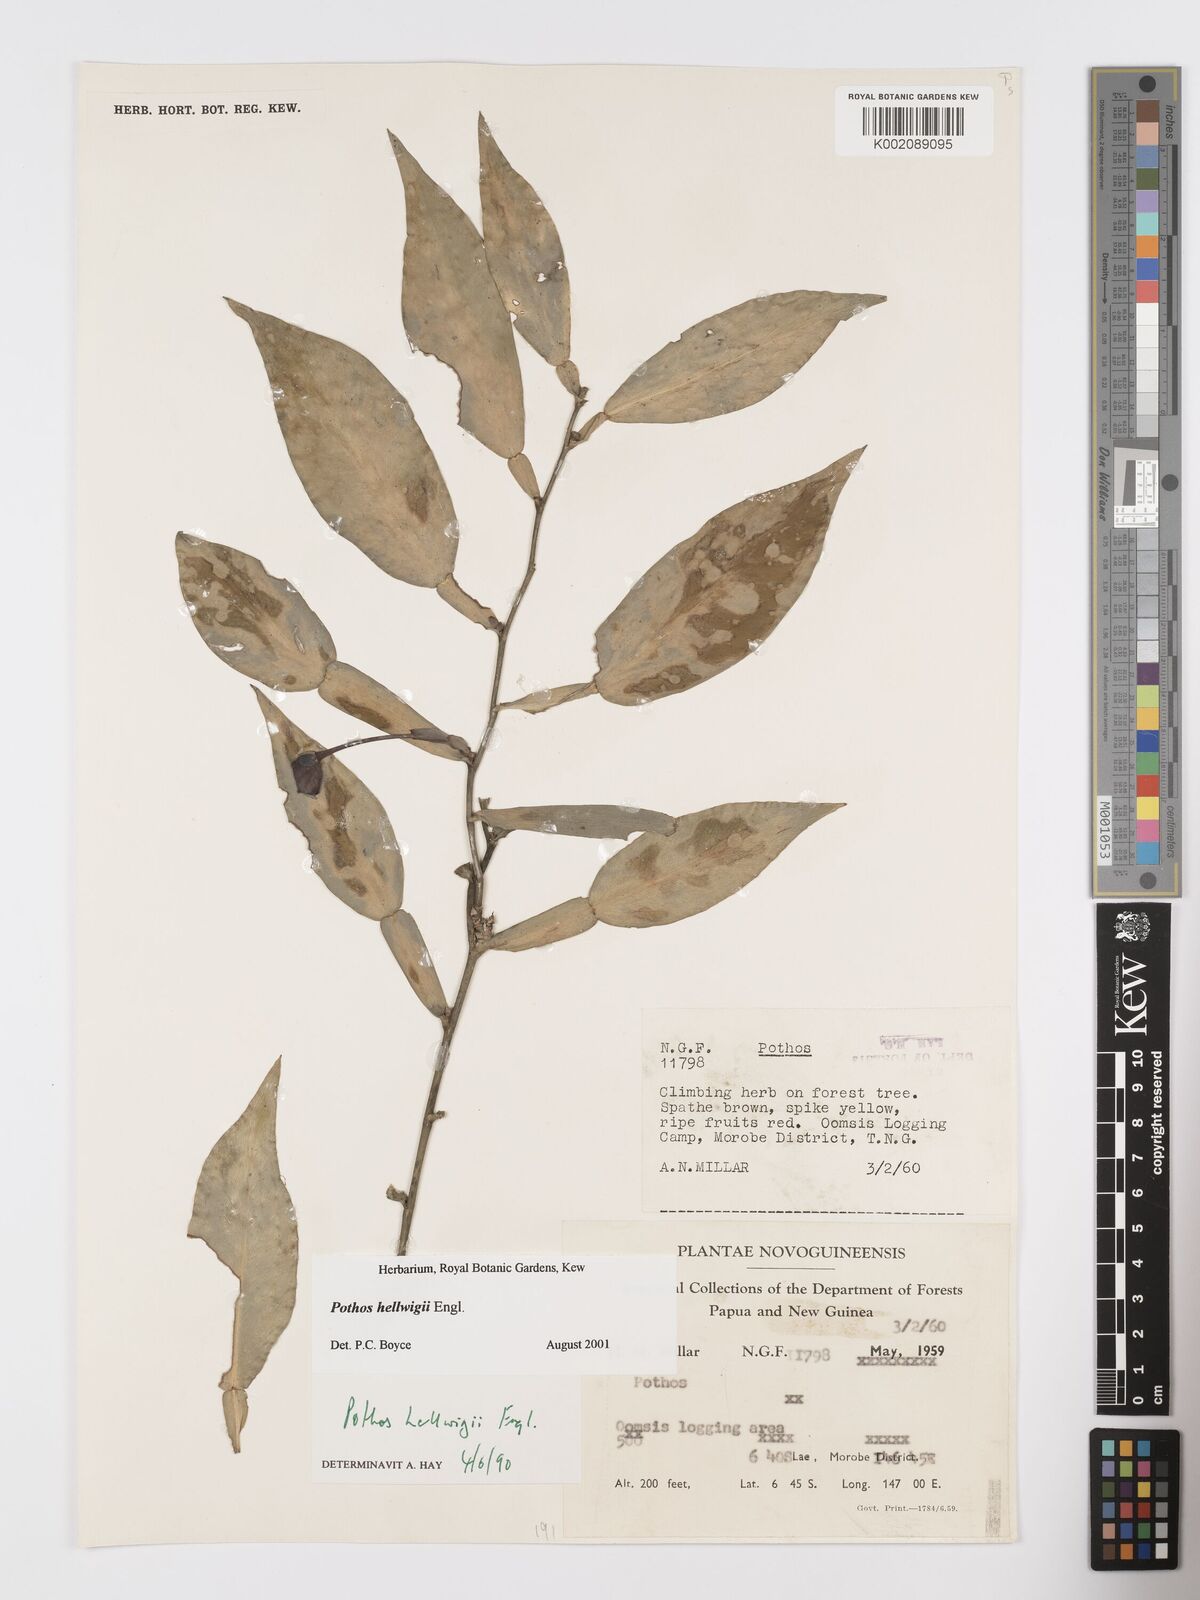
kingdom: Plantae
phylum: Tracheophyta
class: Liliopsida
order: Alismatales
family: Araceae
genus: Pothos
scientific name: Pothos hellwigii
